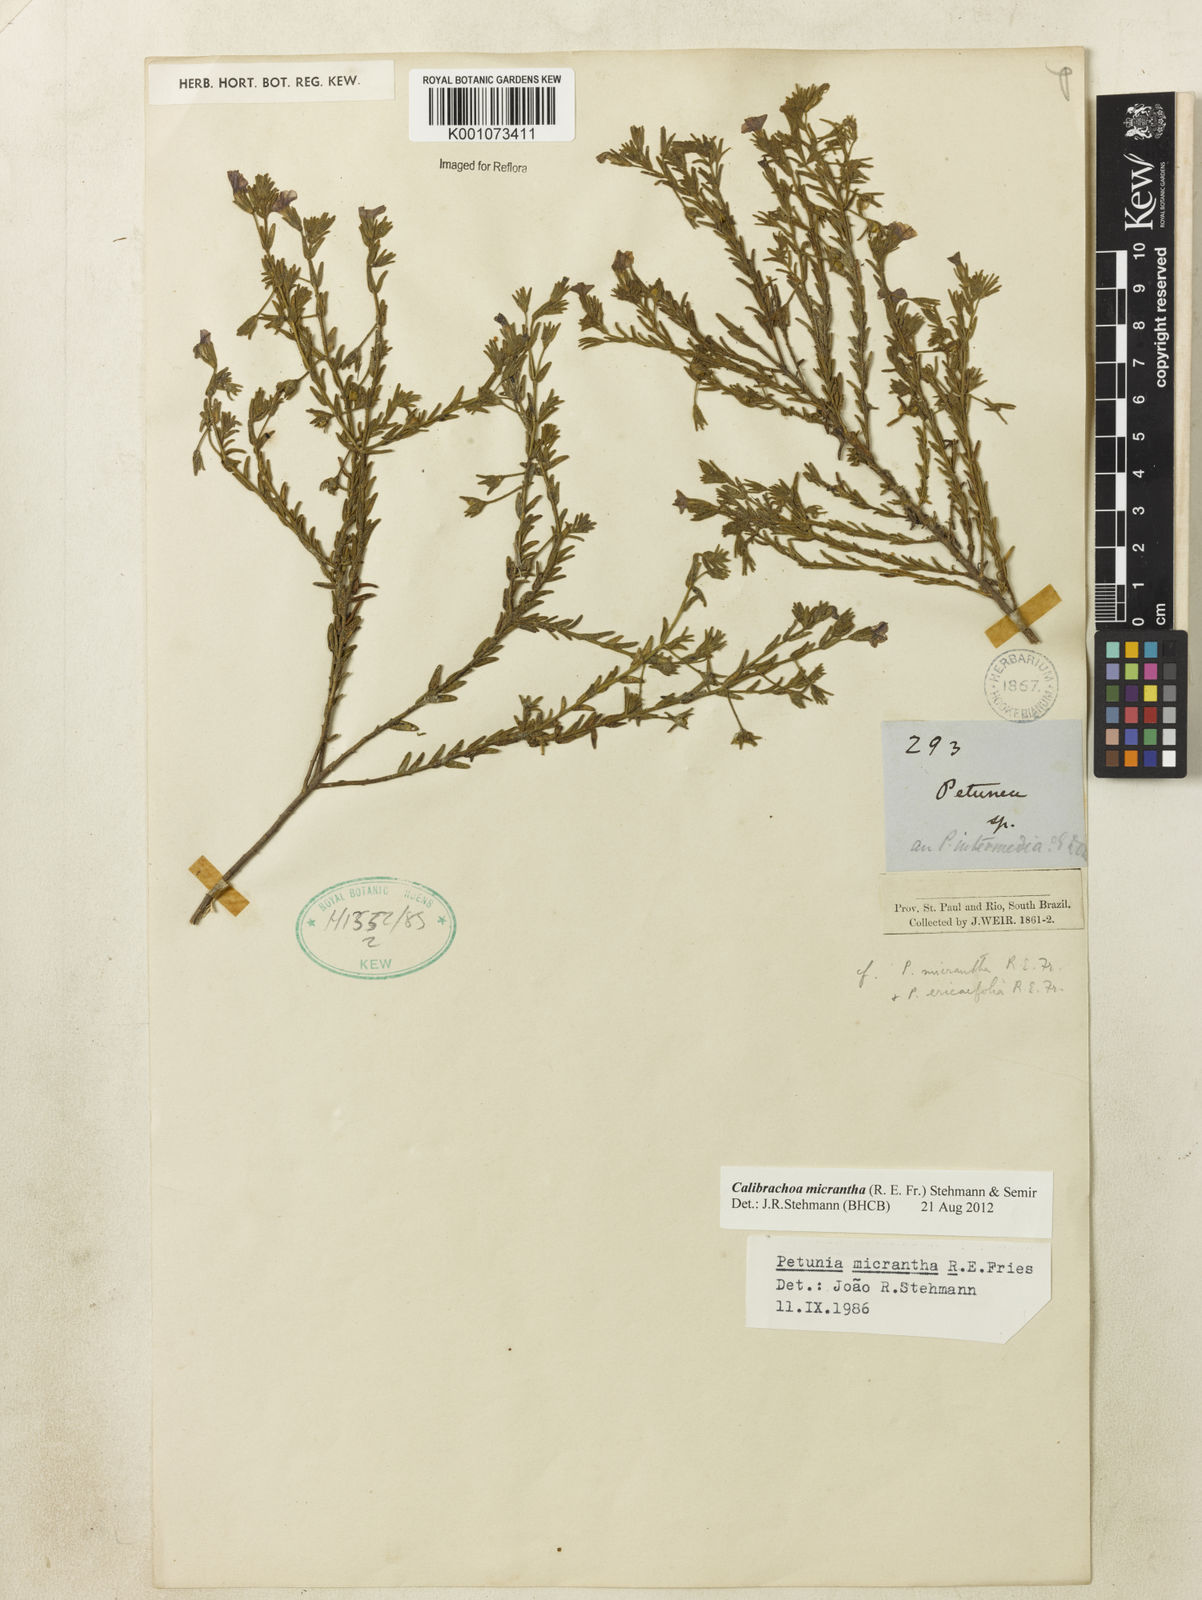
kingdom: Plantae
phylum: Tracheophyta
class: Magnoliopsida
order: Solanales
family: Solanaceae
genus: Calibrachoa
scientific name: Calibrachoa micrantha
